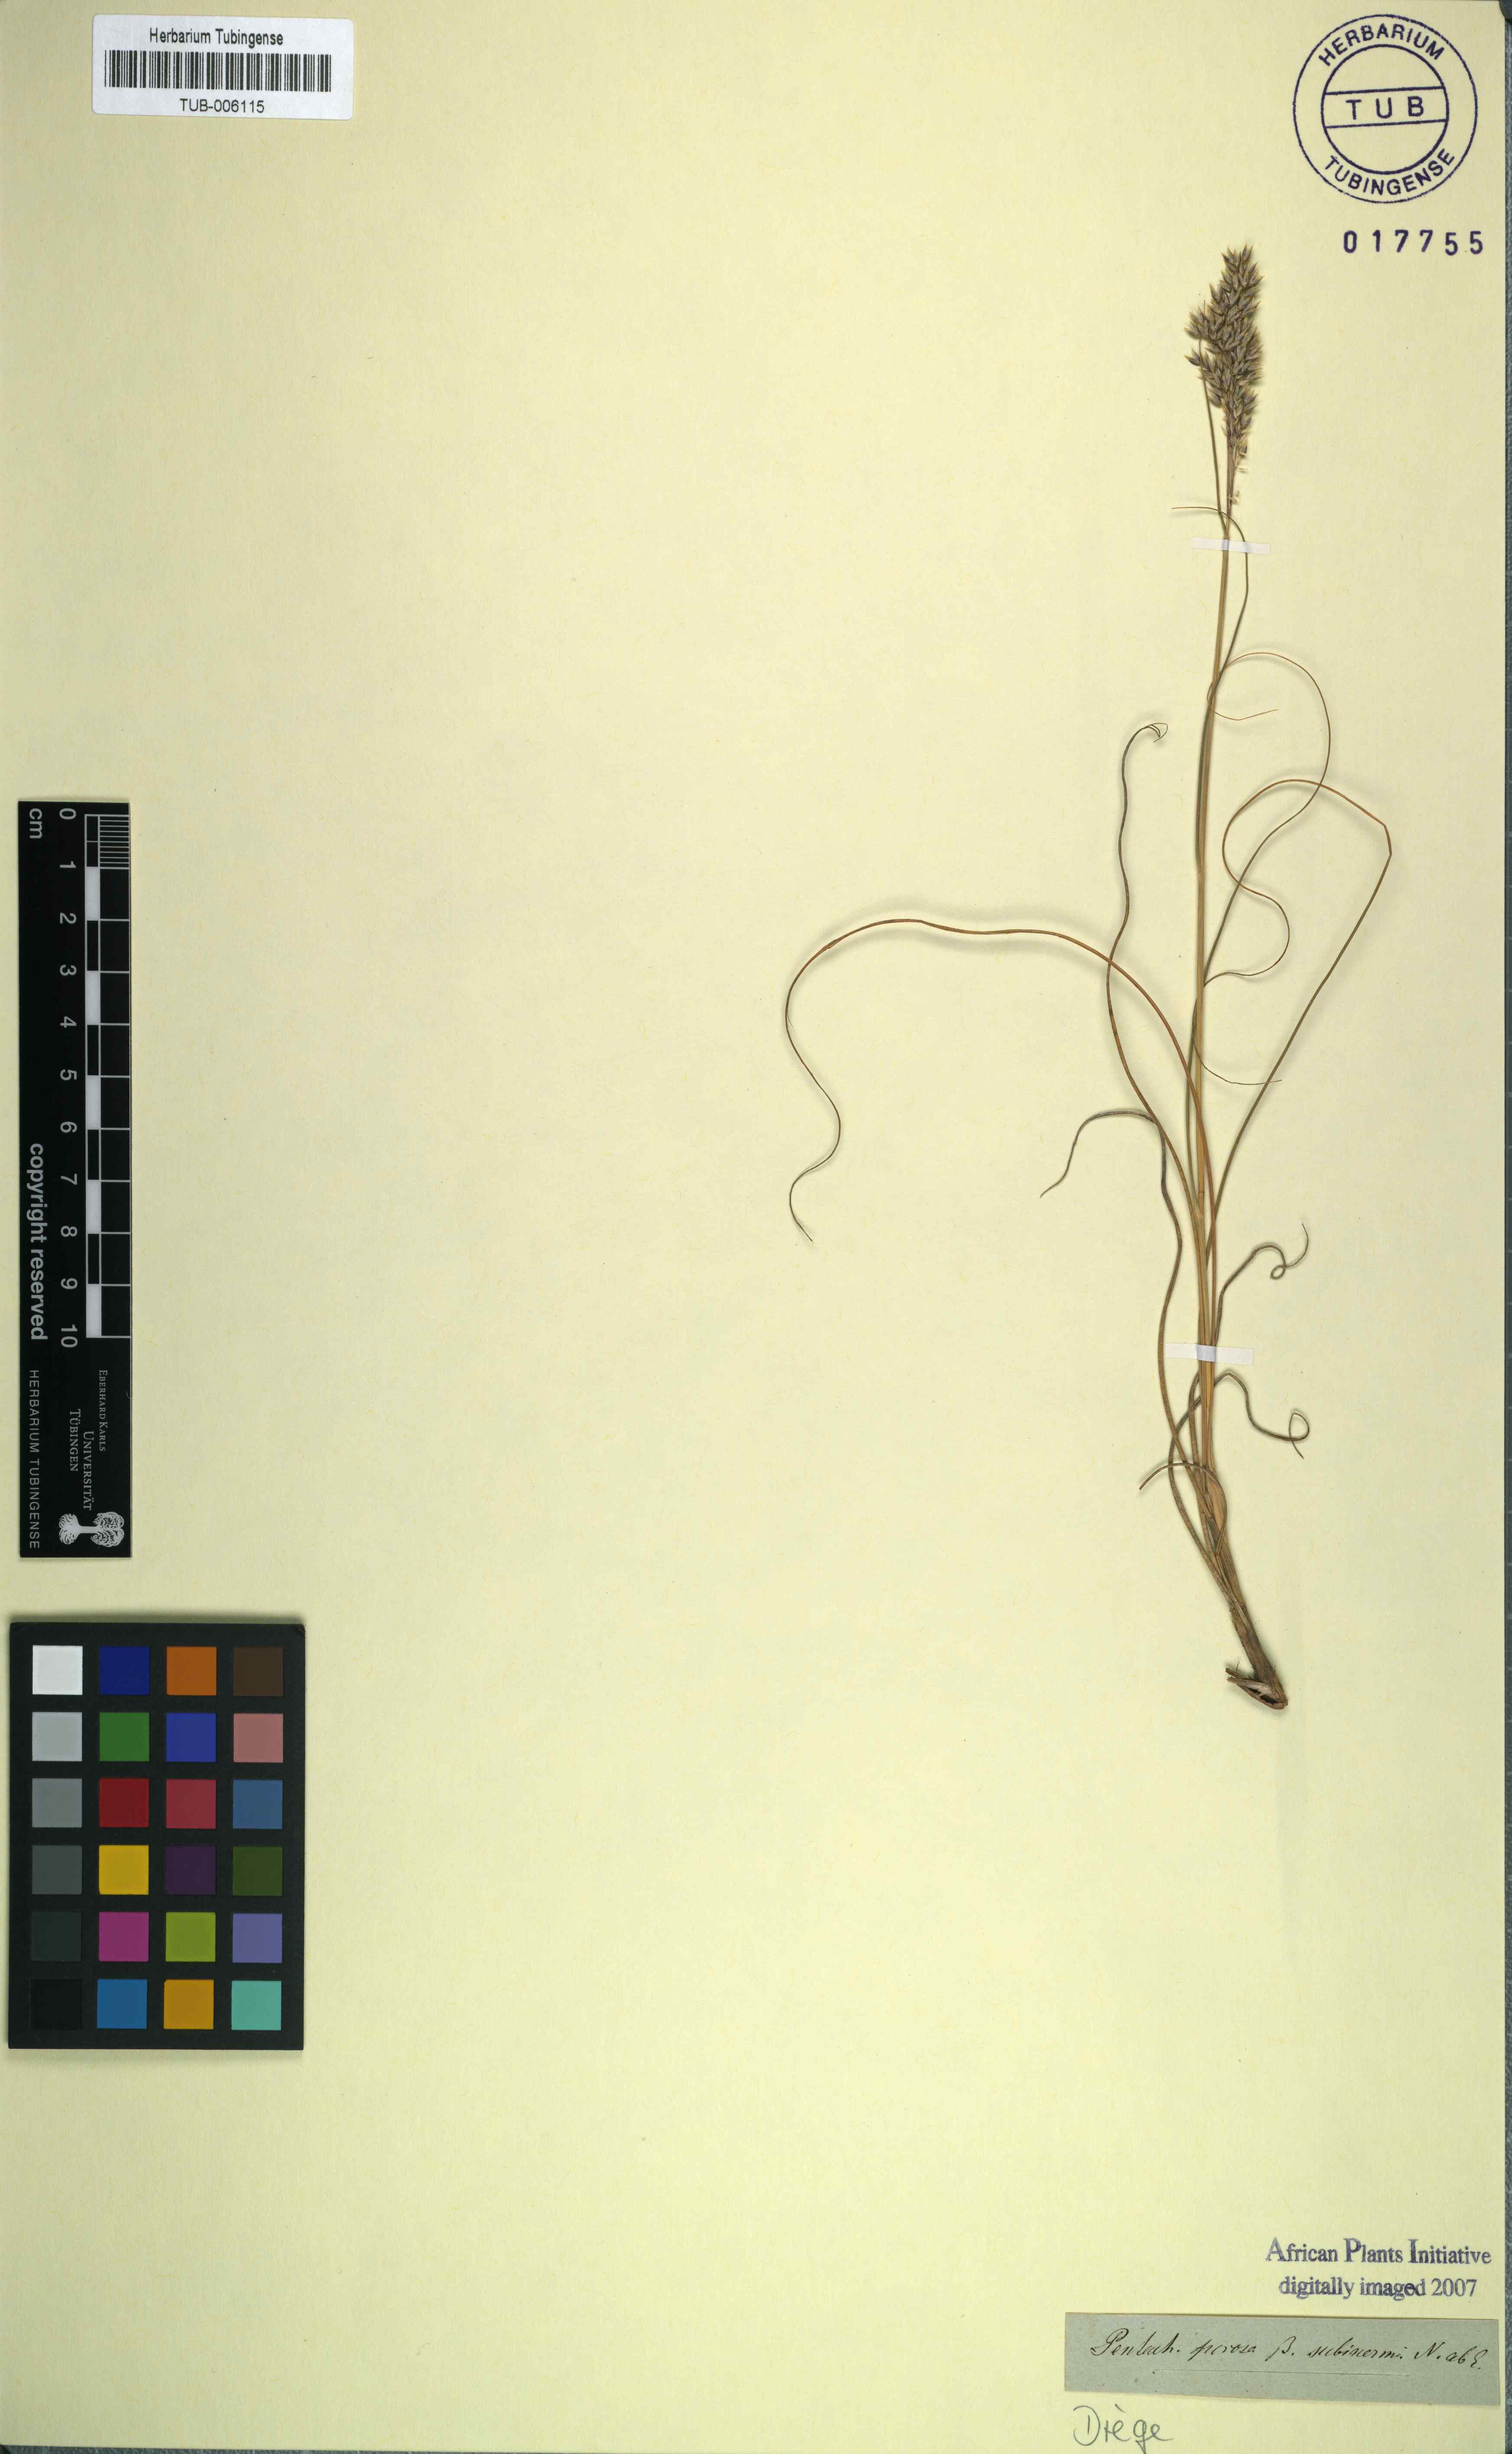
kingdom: Plantae
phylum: Tracheophyta
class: Liliopsida
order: Poales
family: Poaceae
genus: Pentameris
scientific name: Pentameris setifolia
